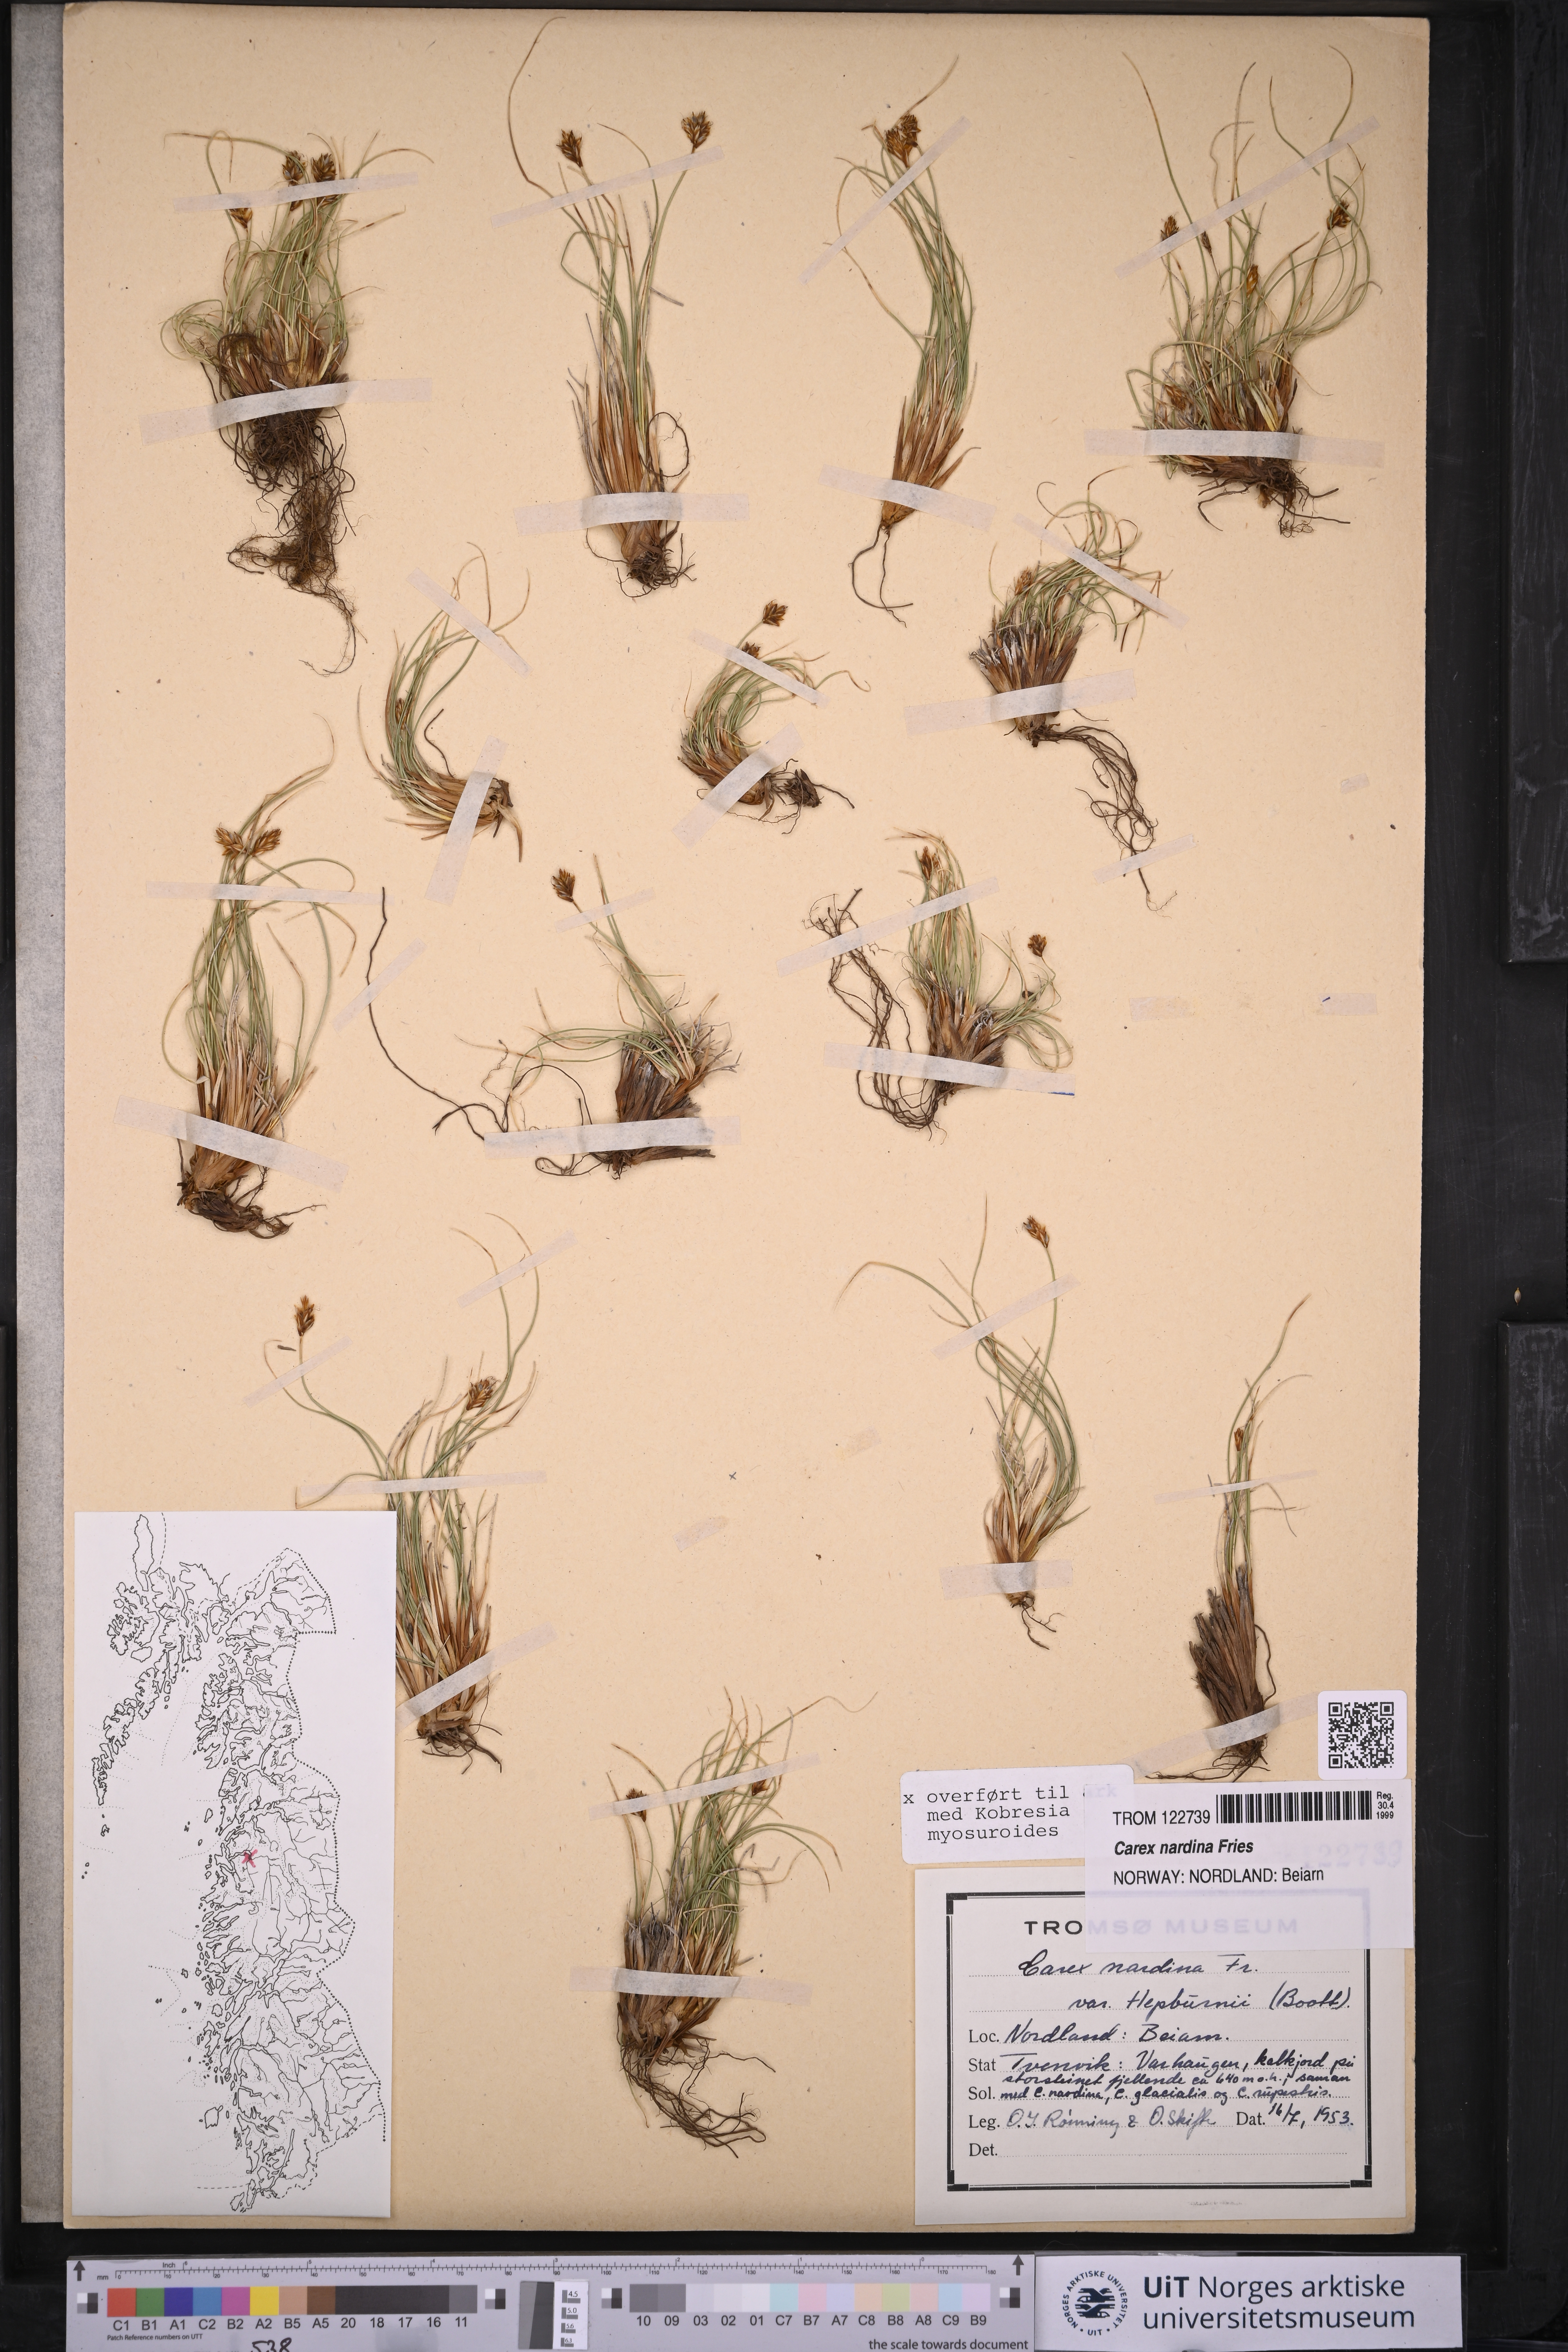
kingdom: Plantae
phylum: Tracheophyta
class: Liliopsida
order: Poales
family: Cyperaceae
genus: Carex
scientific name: Carex nardina
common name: Nard sedge
